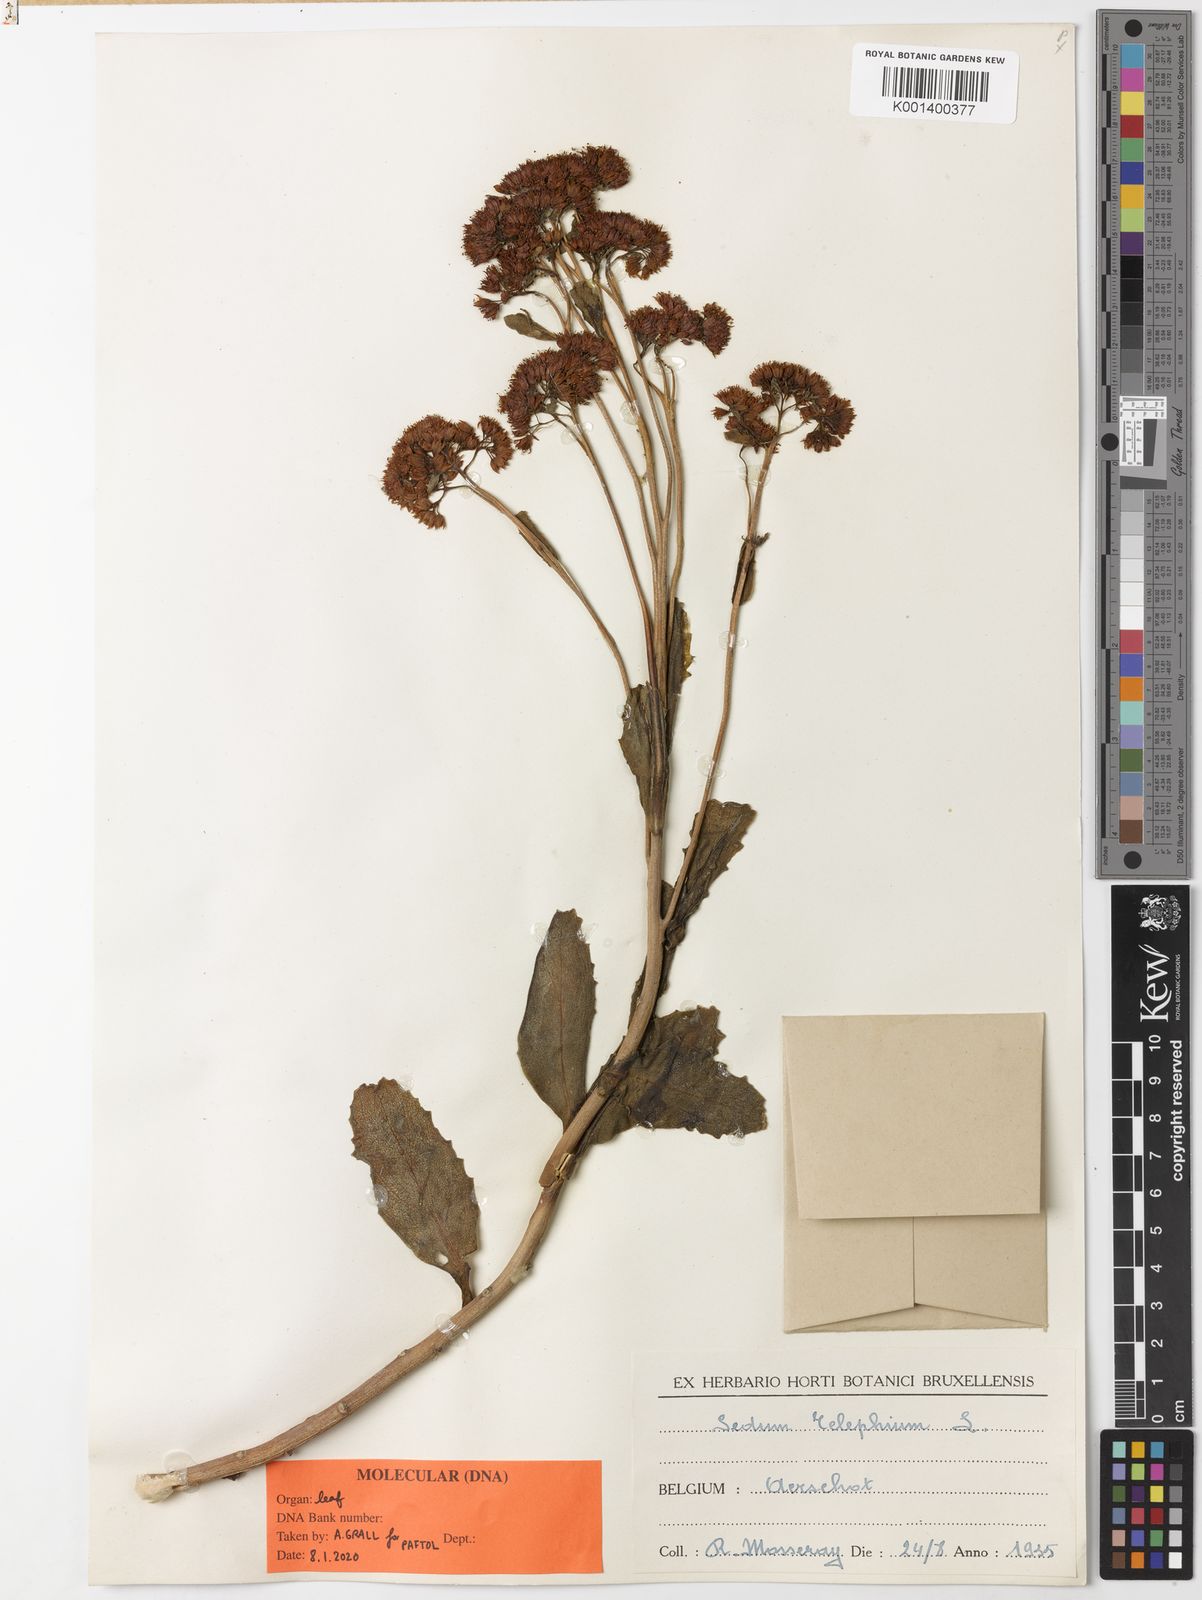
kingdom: Plantae
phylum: Tracheophyta
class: Magnoliopsida
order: Saxifragales
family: Crassulaceae
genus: Hylotelephium
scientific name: Hylotelephium telephium
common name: Live-forever
